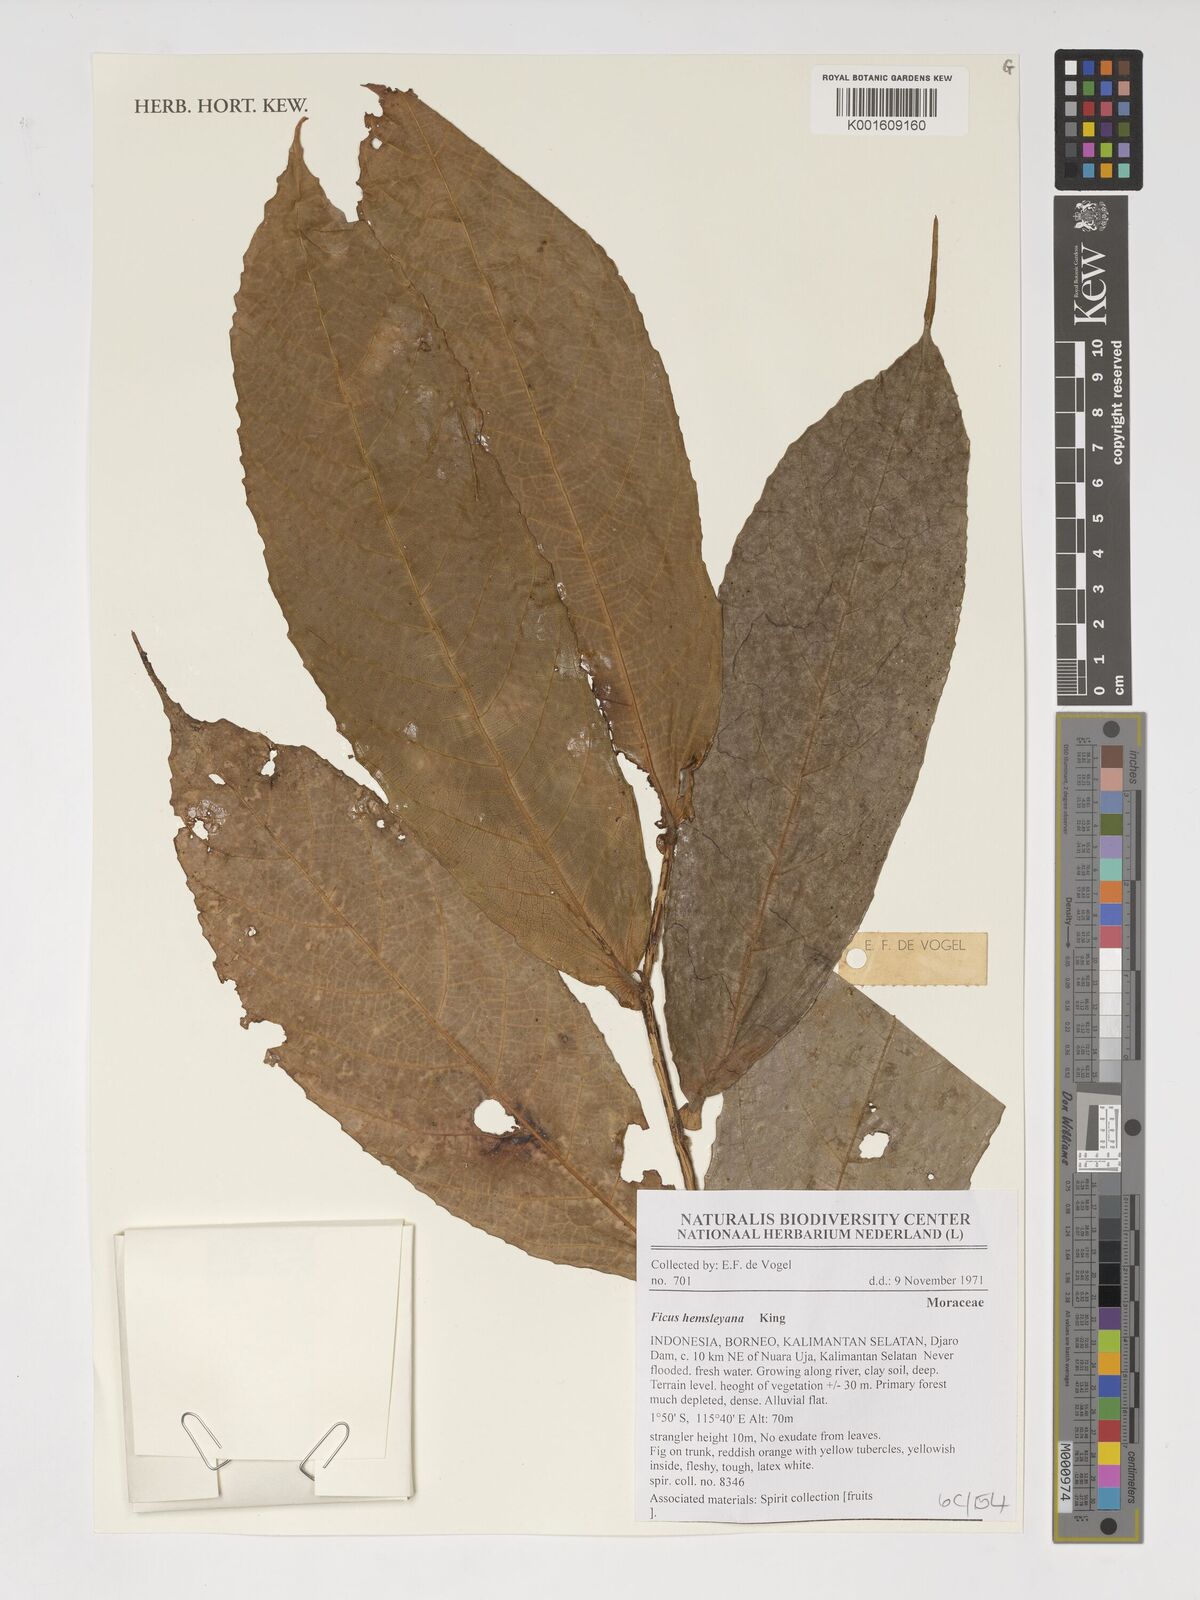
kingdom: Plantae
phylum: Tracheophyta
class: Magnoliopsida
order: Rosales
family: Moraceae
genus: Ficus
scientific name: Ficus hemsleyana
